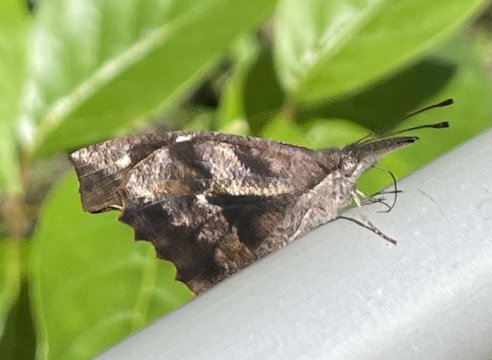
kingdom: Animalia
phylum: Arthropoda
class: Insecta
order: Lepidoptera
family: Nymphalidae
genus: Libytheana
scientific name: Libytheana carinenta
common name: American Snout
